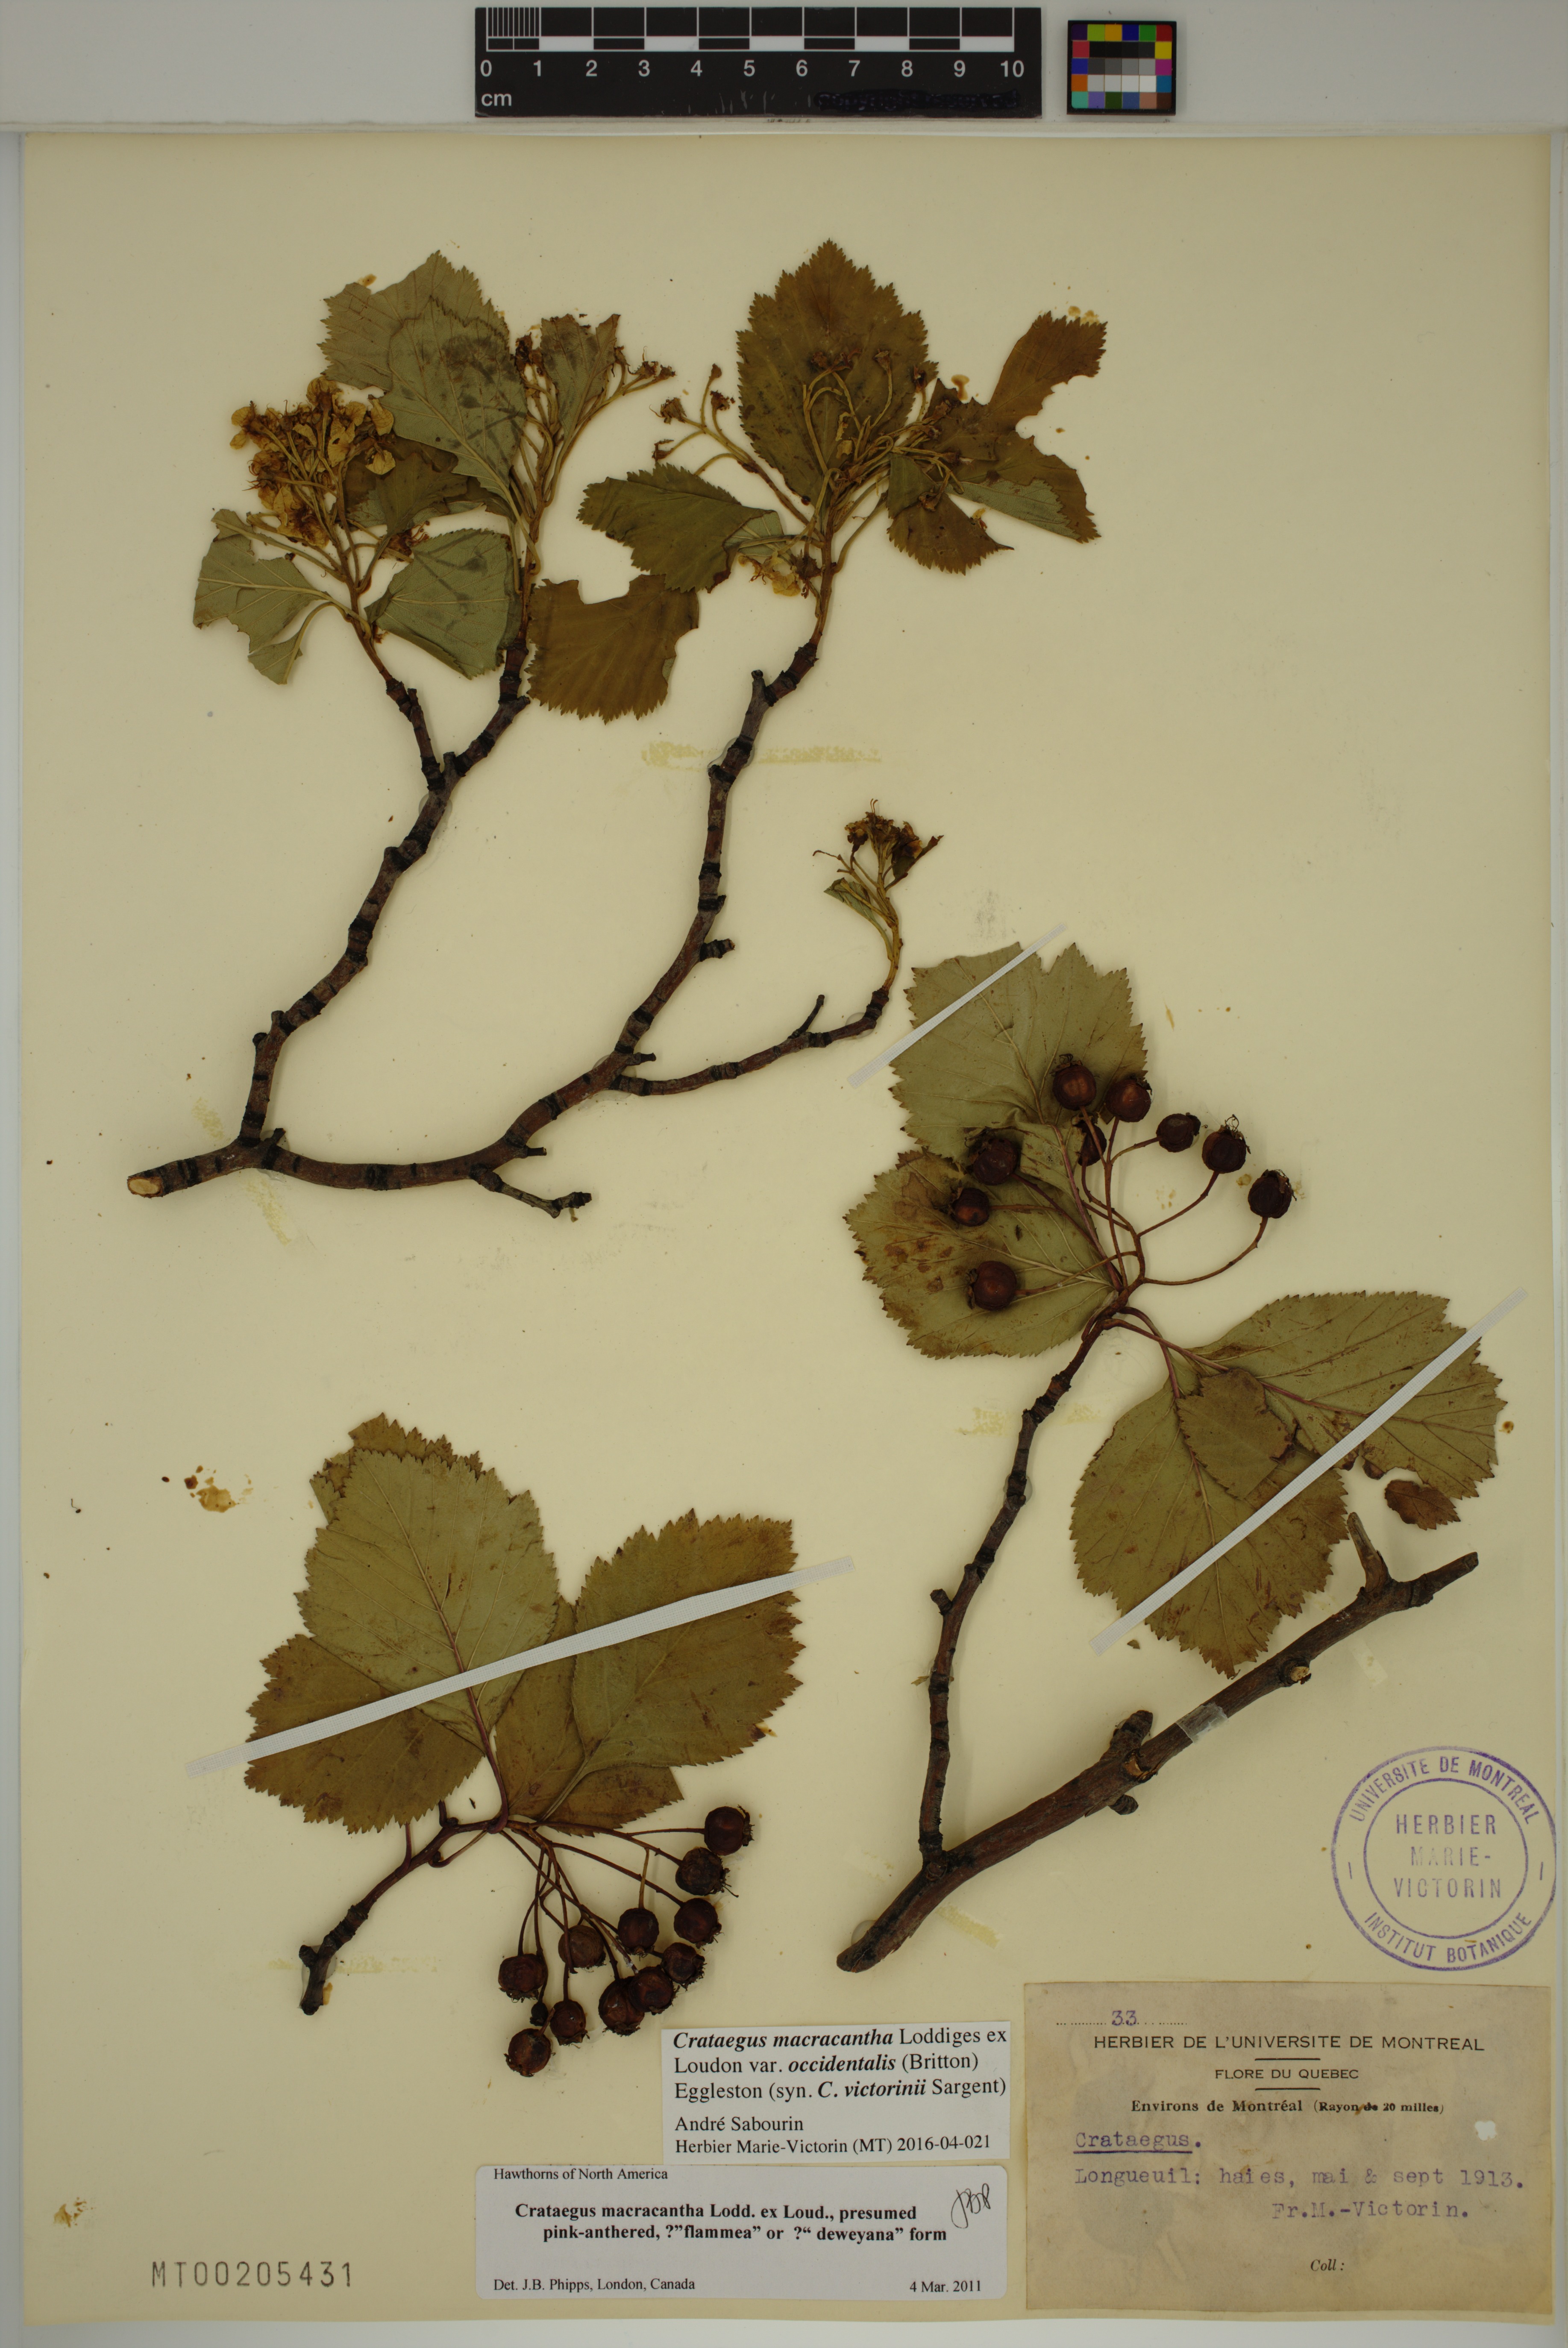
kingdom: Plantae
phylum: Tracheophyta
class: Magnoliopsida
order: Rosales
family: Rosaceae
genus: Crataegus
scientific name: Crataegus macracantha
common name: Large-thorn hawthorn
